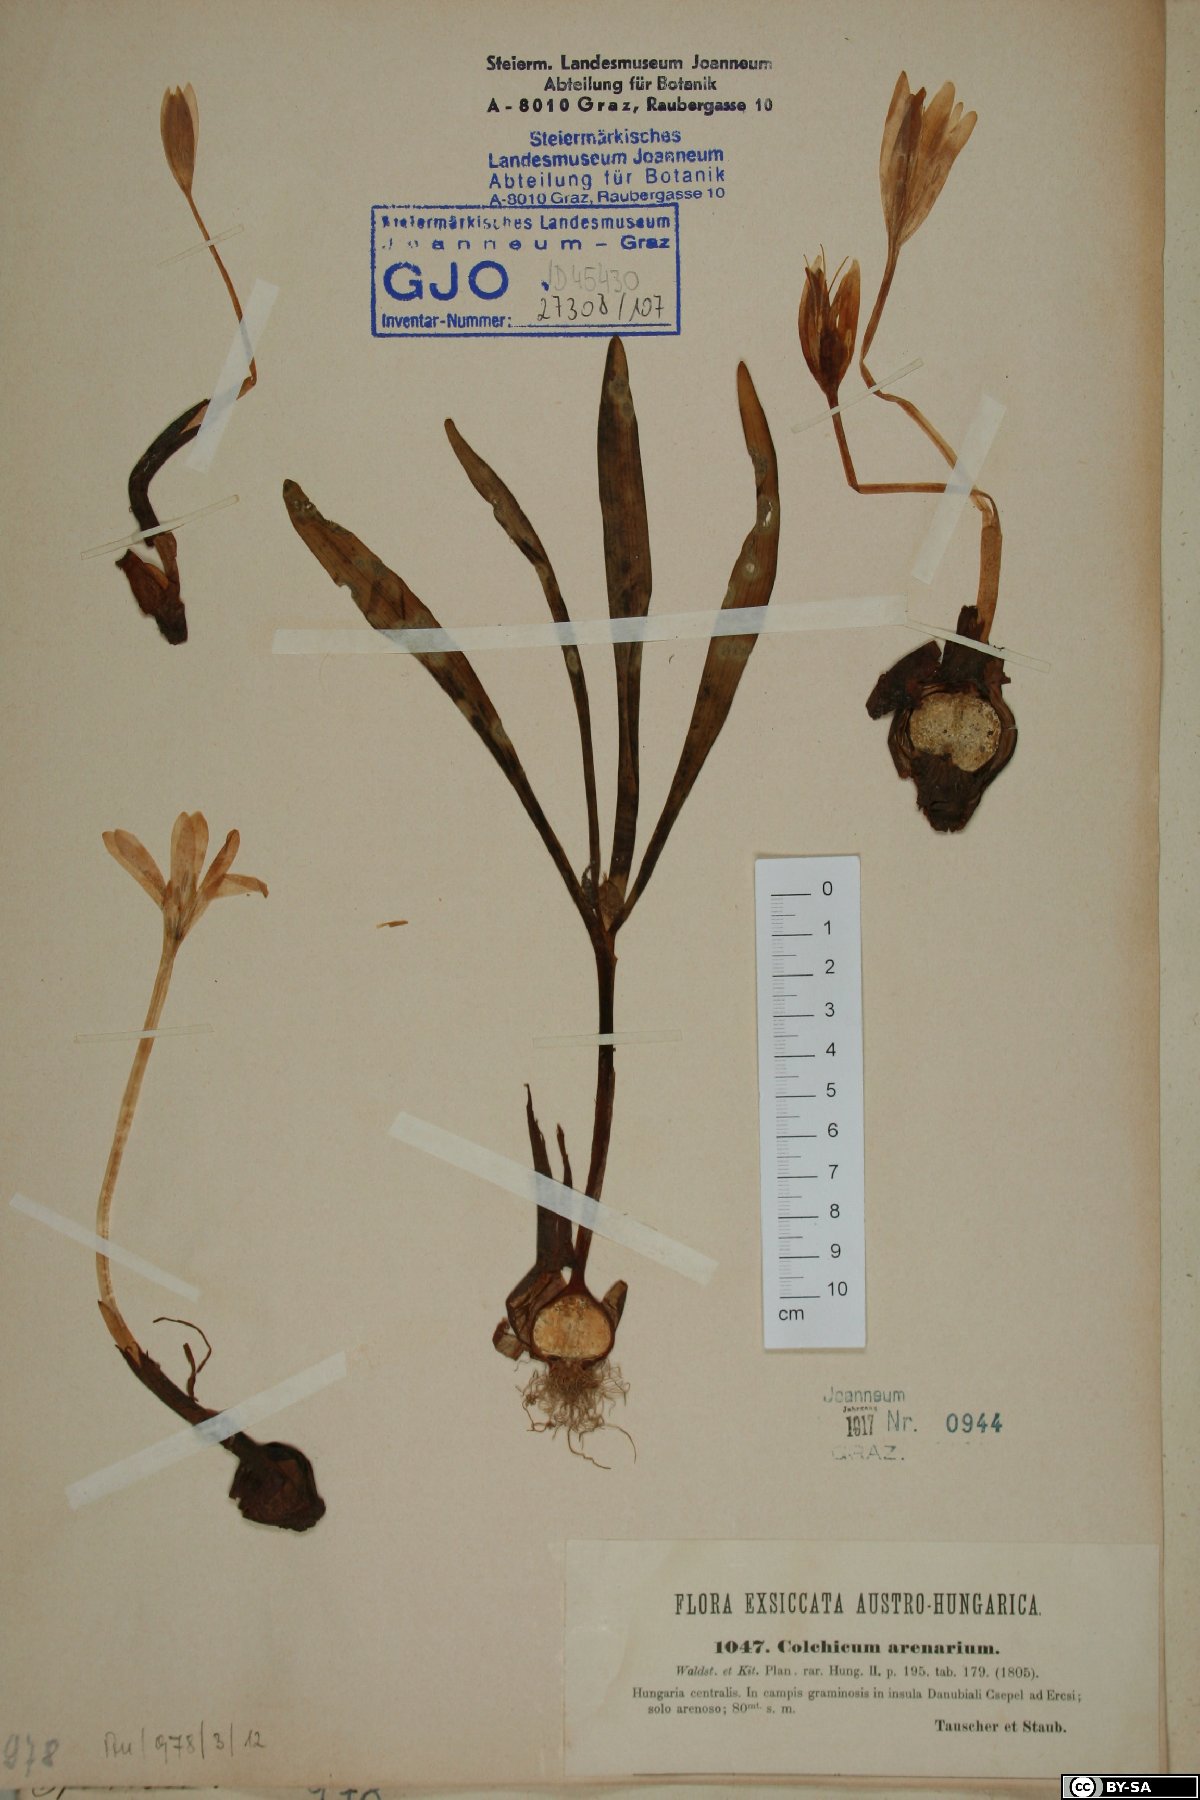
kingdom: Plantae
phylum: Tracheophyta
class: Liliopsida
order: Liliales
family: Colchicaceae
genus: Colchicum
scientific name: Colchicum arenarium
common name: Sand saffron
